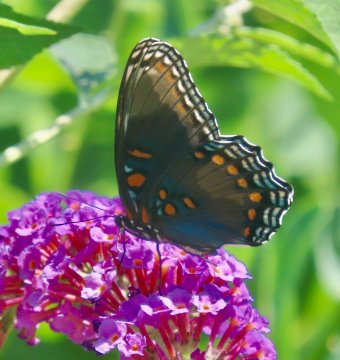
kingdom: Animalia
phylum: Arthropoda
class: Insecta
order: Lepidoptera
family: Nymphalidae
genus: Limenitis
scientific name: Limenitis arthemis
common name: Red-spotted Admiral
